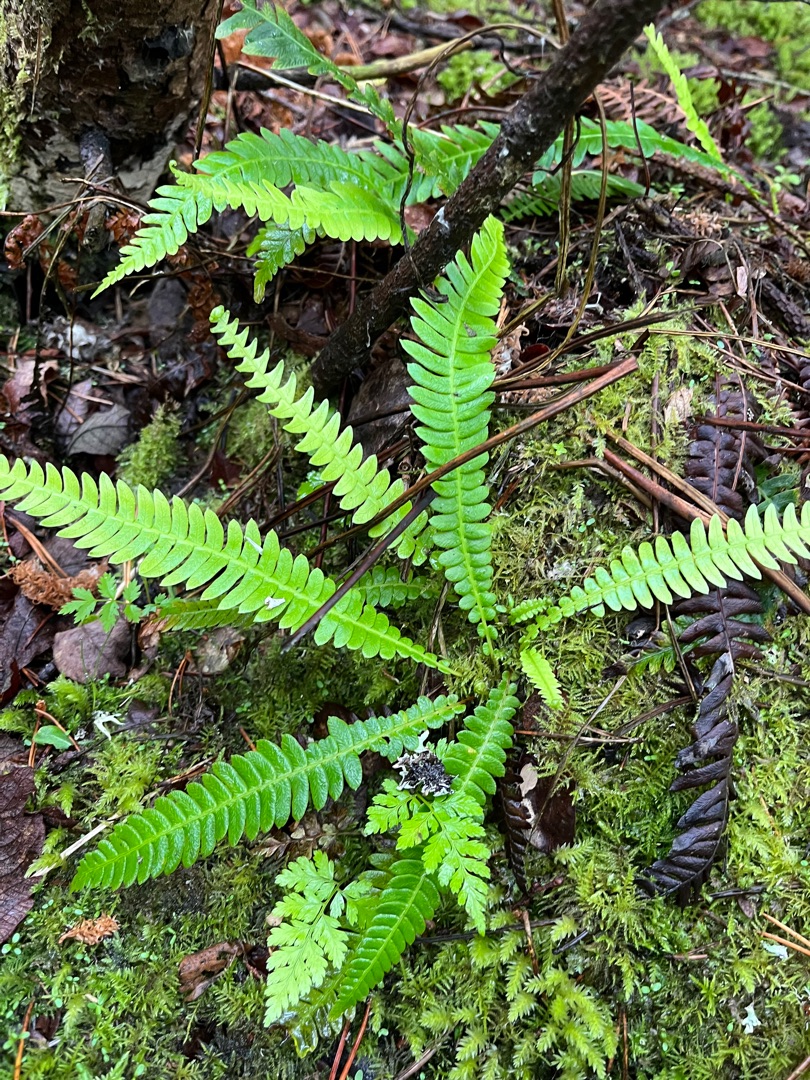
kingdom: Plantae
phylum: Tracheophyta
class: Polypodiopsida
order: Polypodiales
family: Blechnaceae
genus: Struthiopteris
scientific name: Struthiopteris spicant
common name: Kambregne
